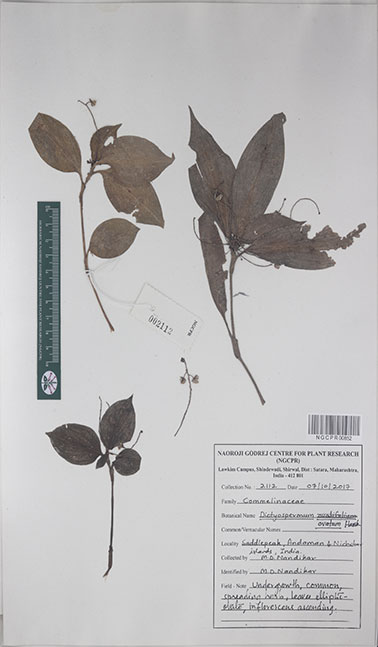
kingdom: Plantae
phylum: Tracheophyta
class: Liliopsida
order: Commelinales
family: Commelinaceae
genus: Dictyospermum
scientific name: Dictyospermum ovatum
